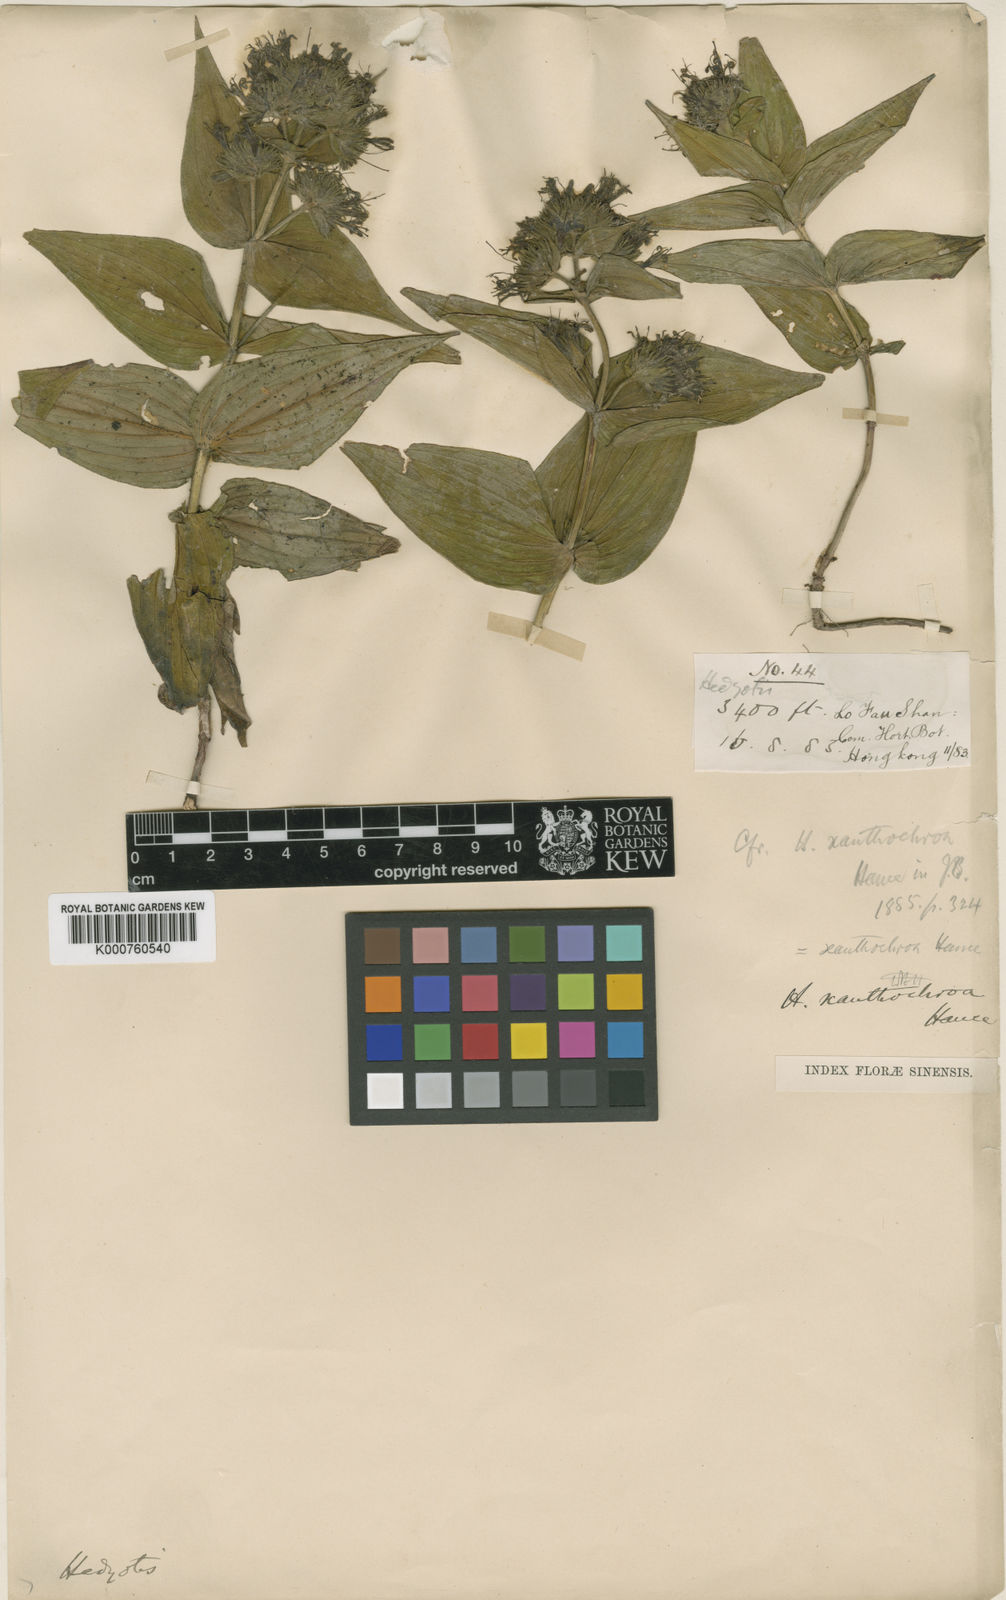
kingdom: Plantae
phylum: Tracheophyta
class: Magnoliopsida
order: Gentianales
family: Rubiaceae
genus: Oldenlandia
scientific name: Oldenlandia xanthochroa
